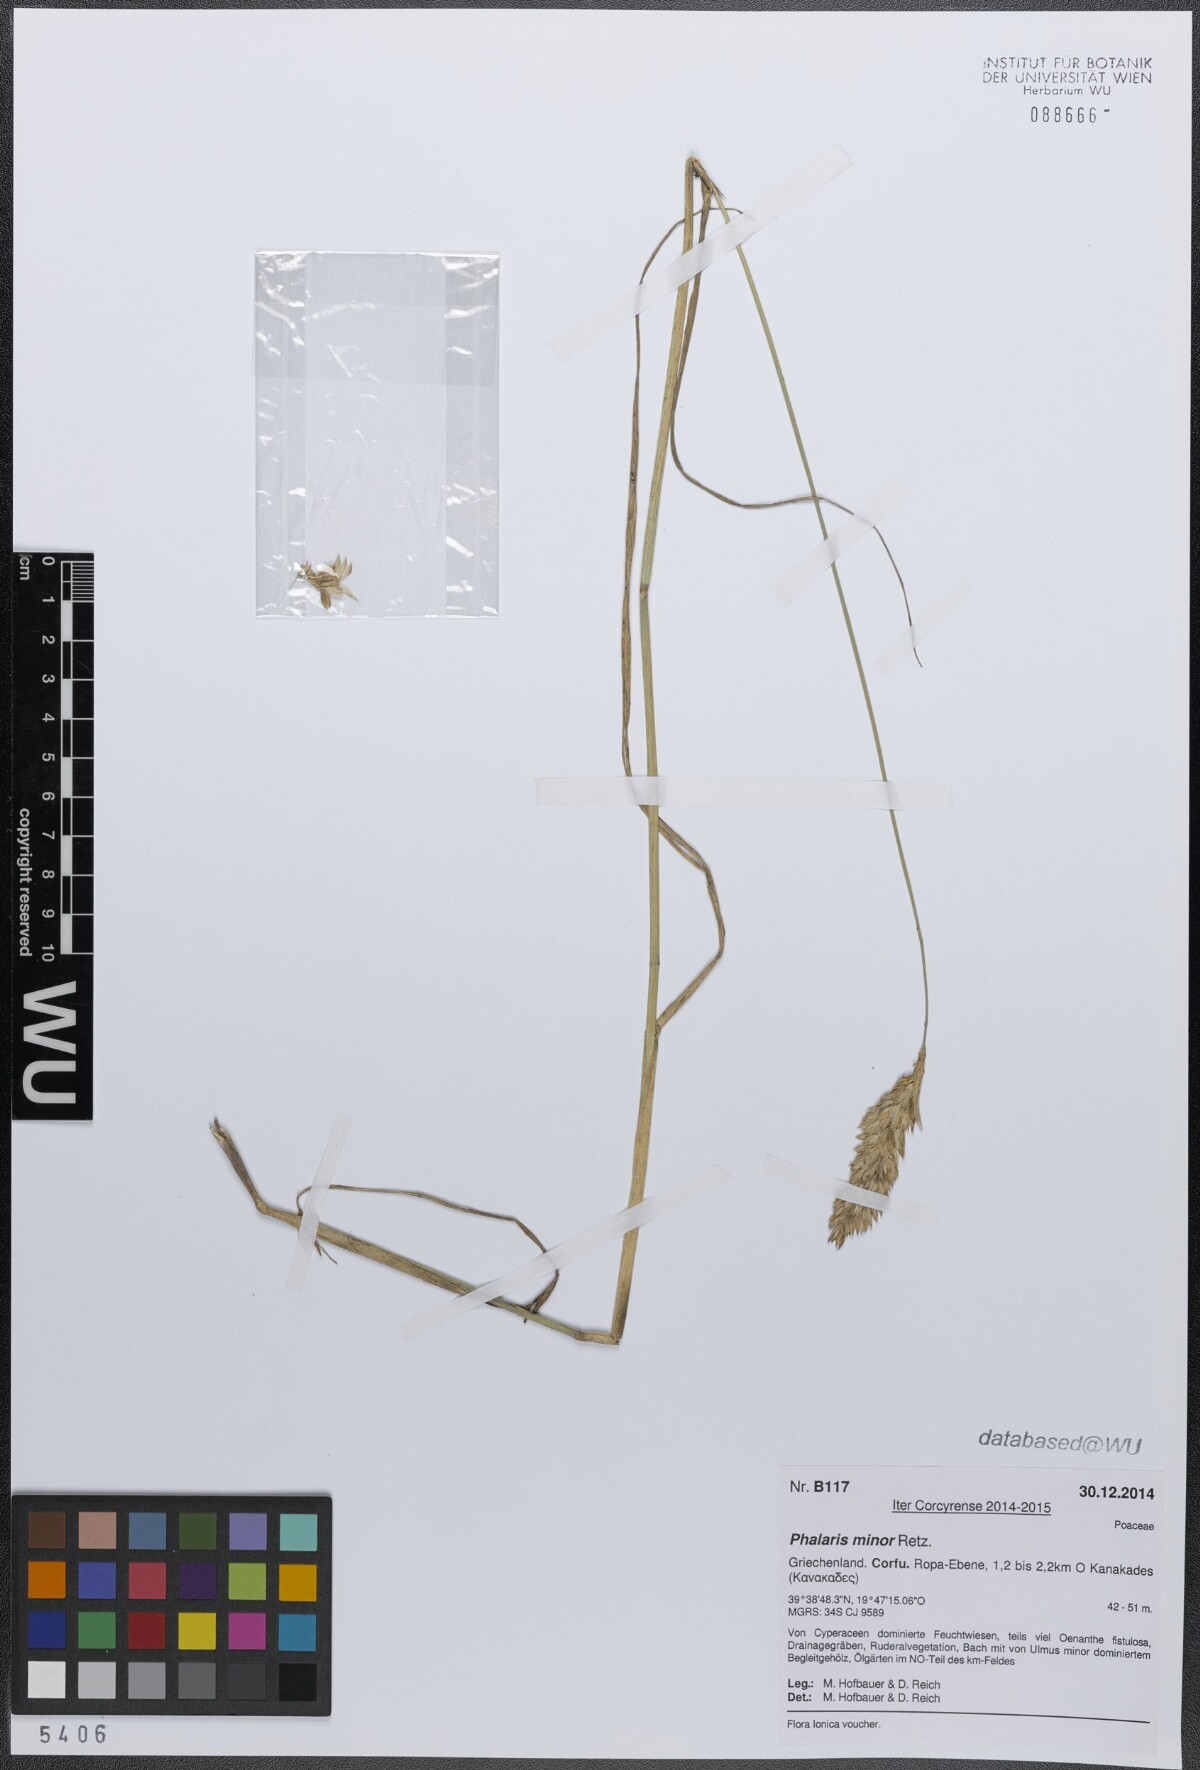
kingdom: Plantae
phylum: Tracheophyta
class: Liliopsida
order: Poales
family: Poaceae
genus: Phalaris
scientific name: Phalaris minor
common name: Littleseed canarygrass
